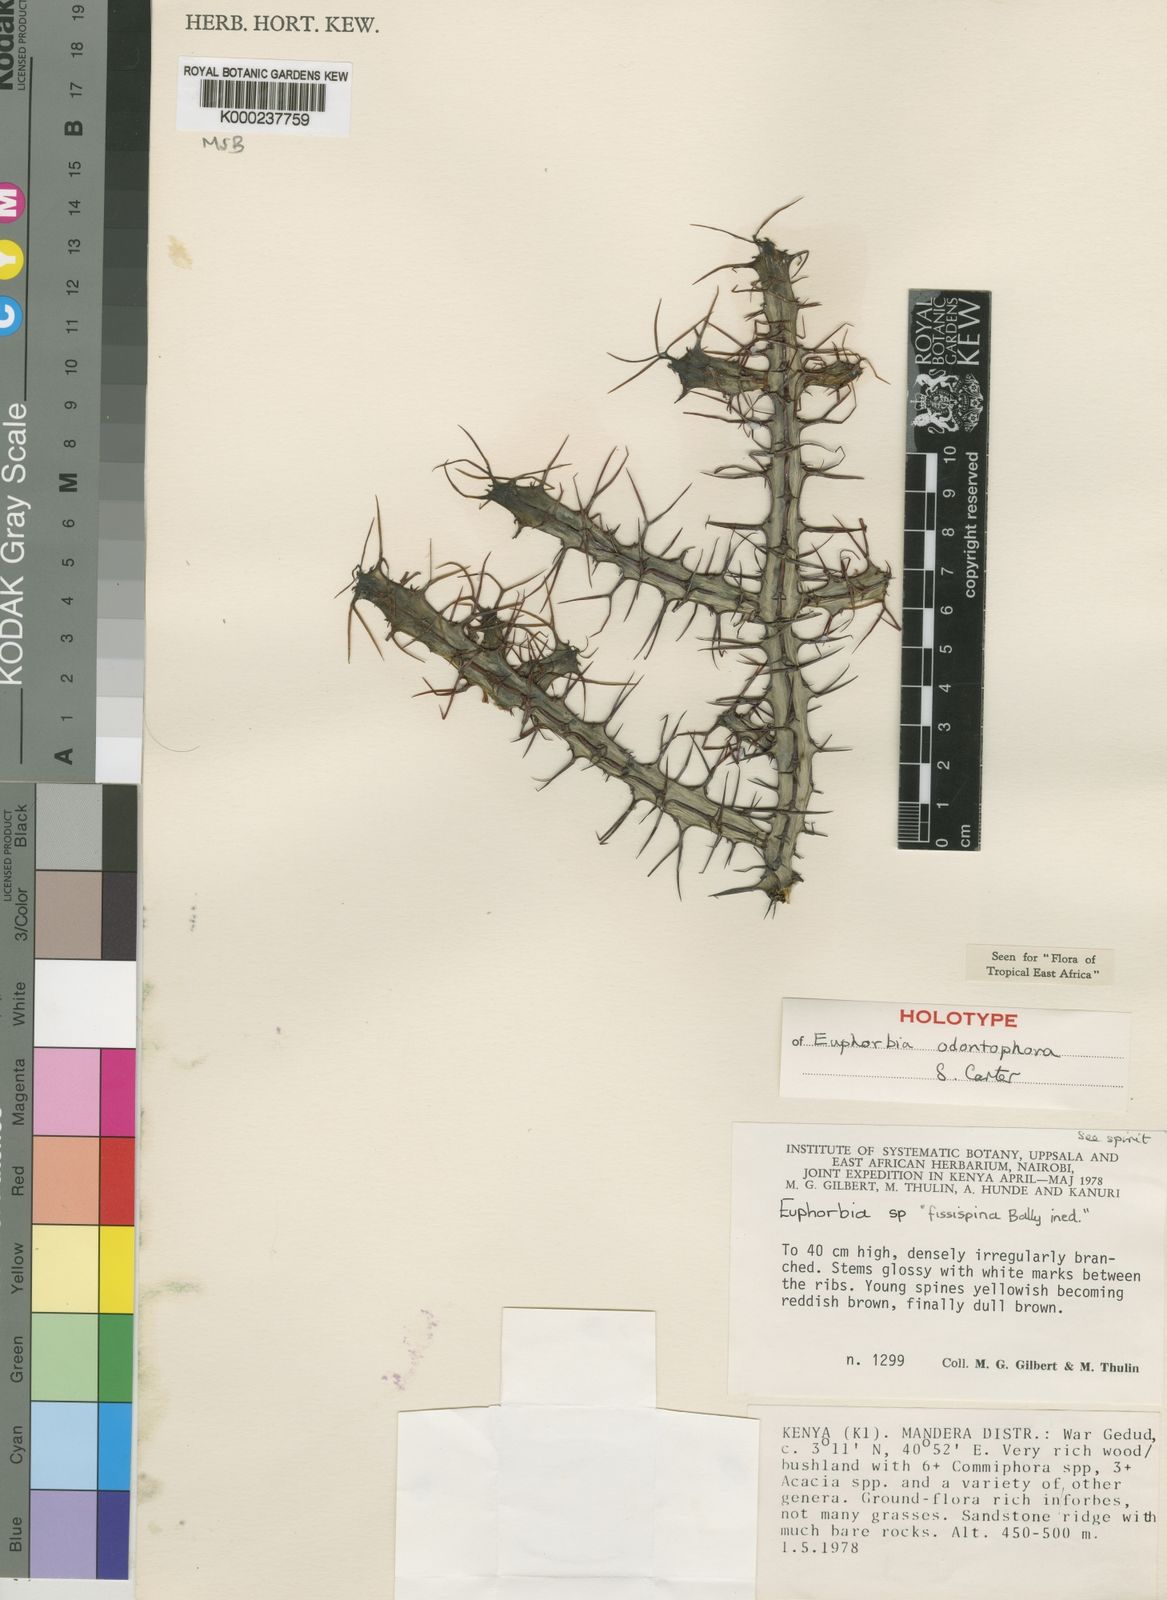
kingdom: Plantae
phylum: Tracheophyta
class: Magnoliopsida
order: Malpighiales
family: Euphorbiaceae
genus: Euphorbia
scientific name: Euphorbia odontophora
